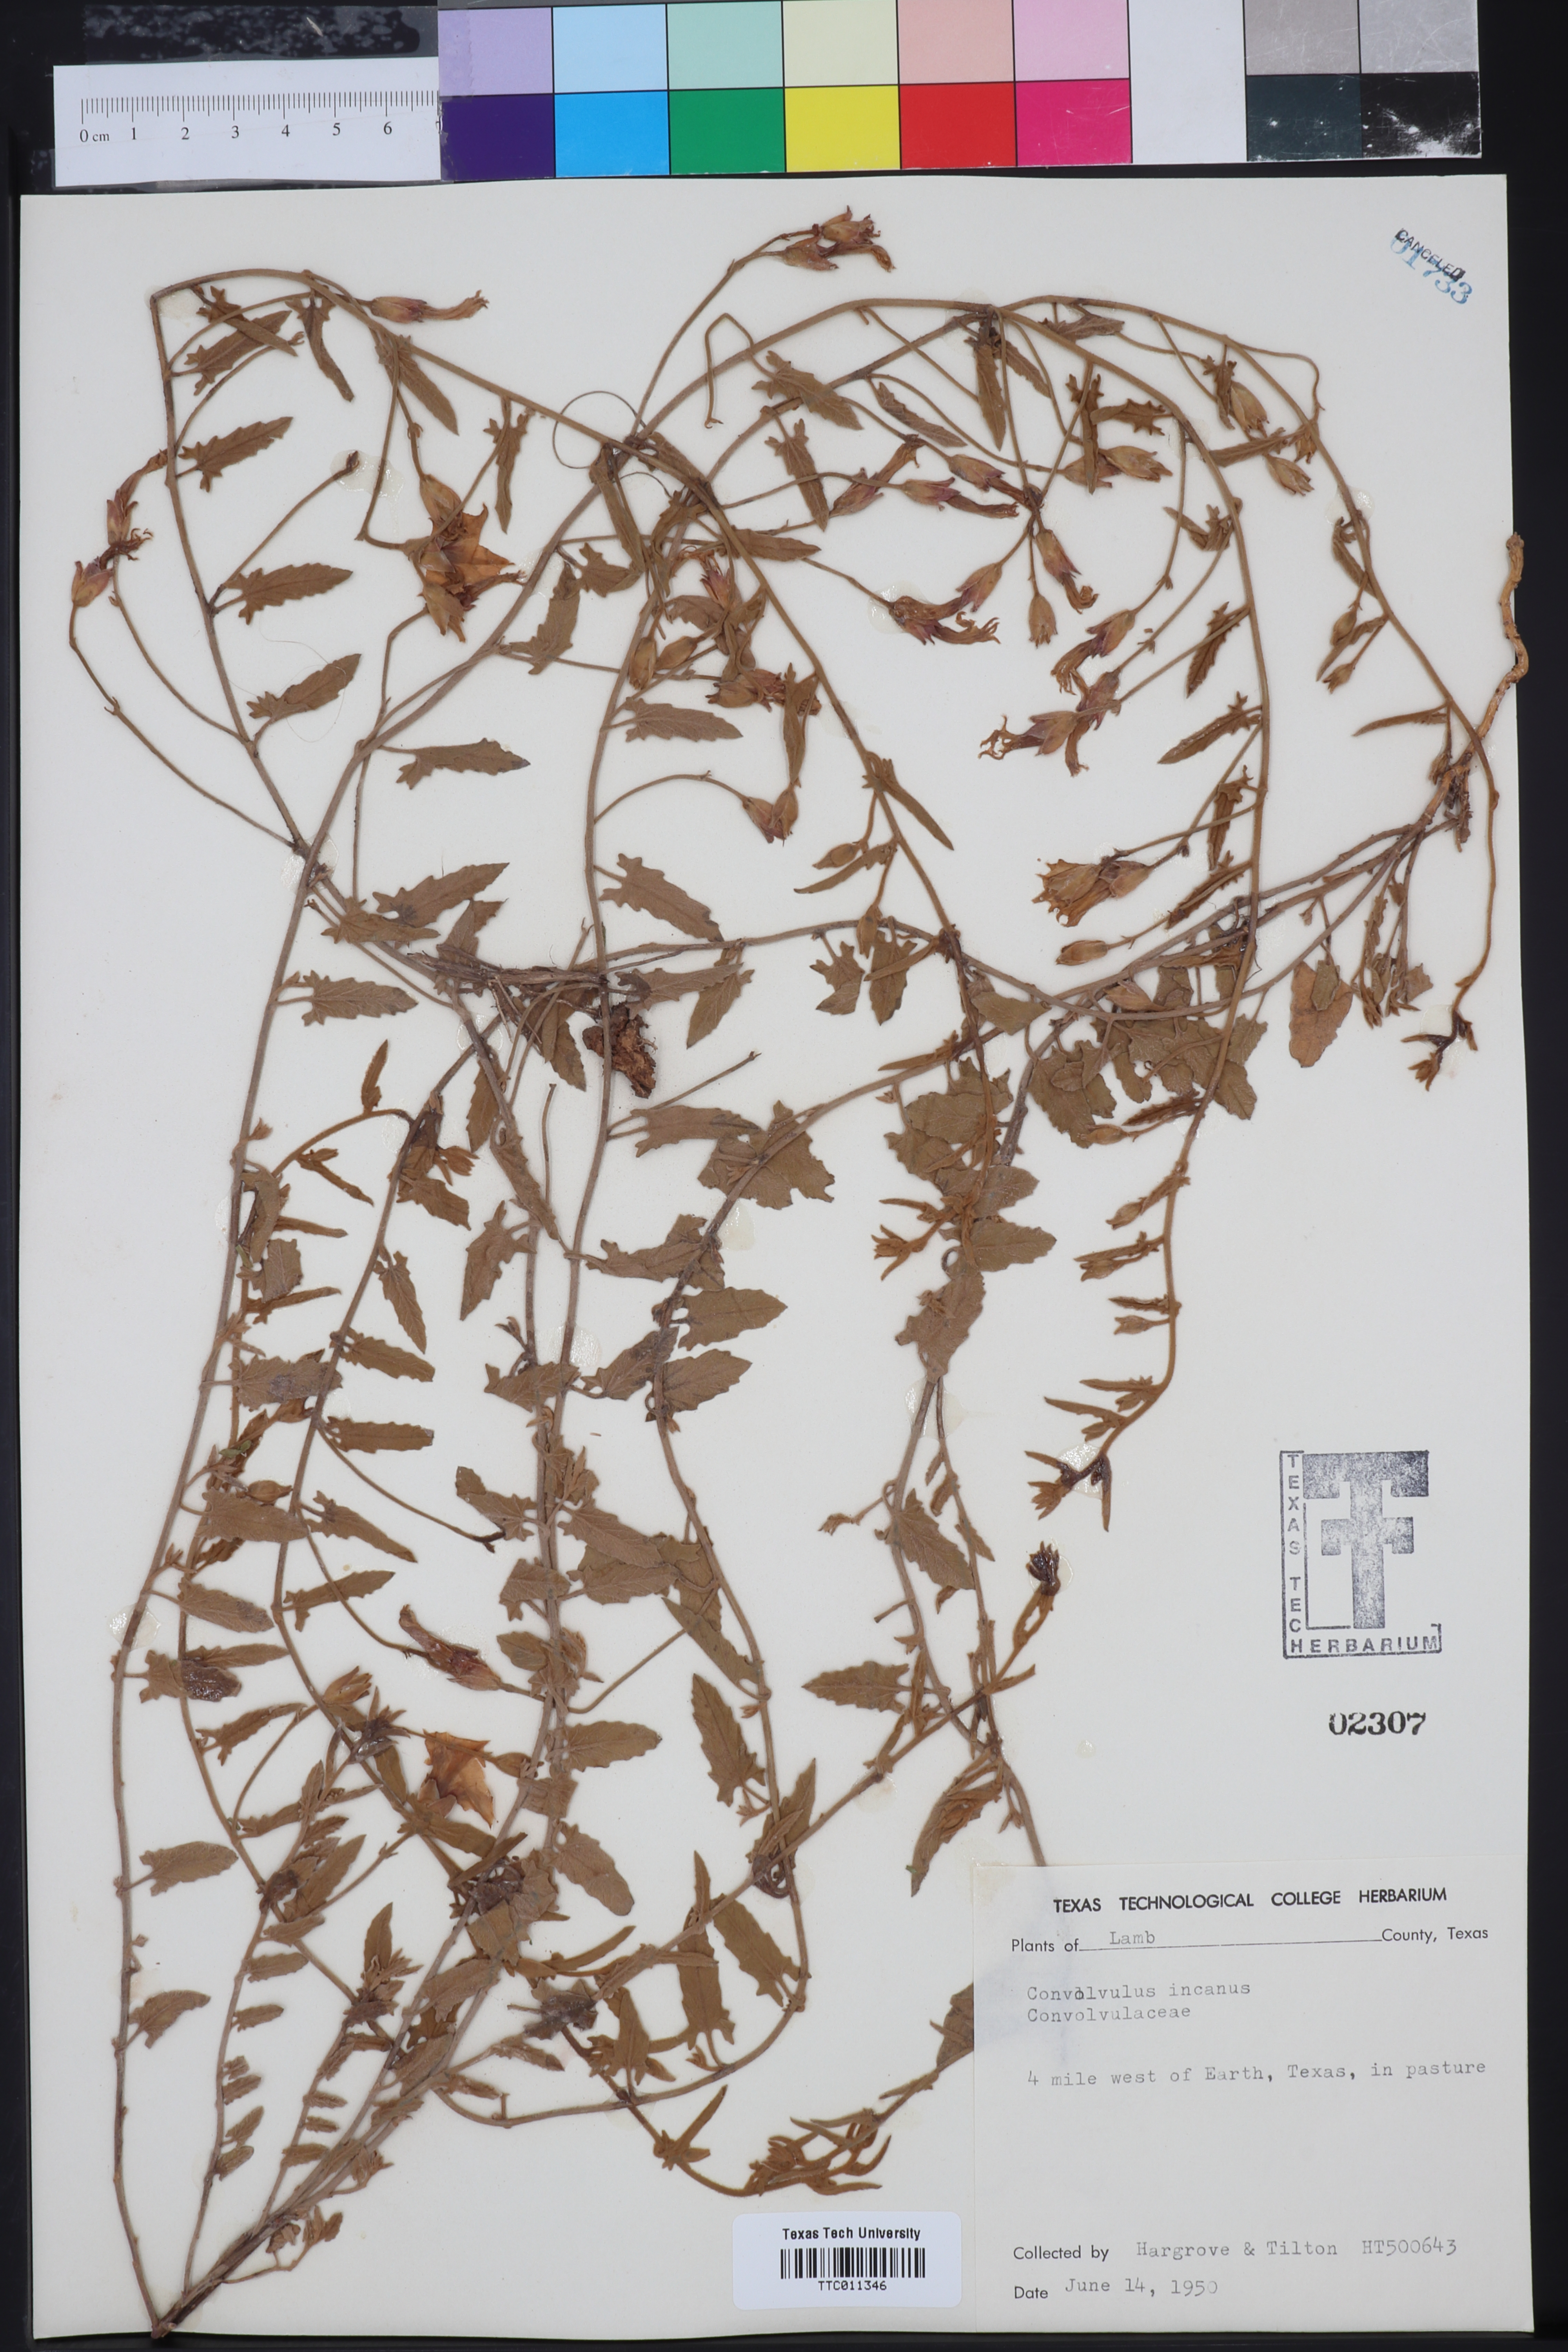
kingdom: Plantae
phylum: Tracheophyta
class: Magnoliopsida
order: Solanales
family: Convolvulaceae
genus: Convolvulus
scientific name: Convolvulus hermanniae
